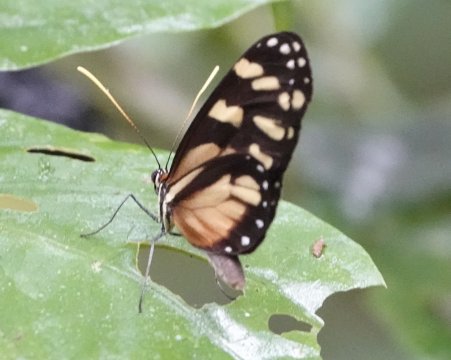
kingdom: Animalia
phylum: Arthropoda
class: Insecta
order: Lepidoptera
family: Nymphalidae
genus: Godyris
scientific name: Godyris zavaleta
